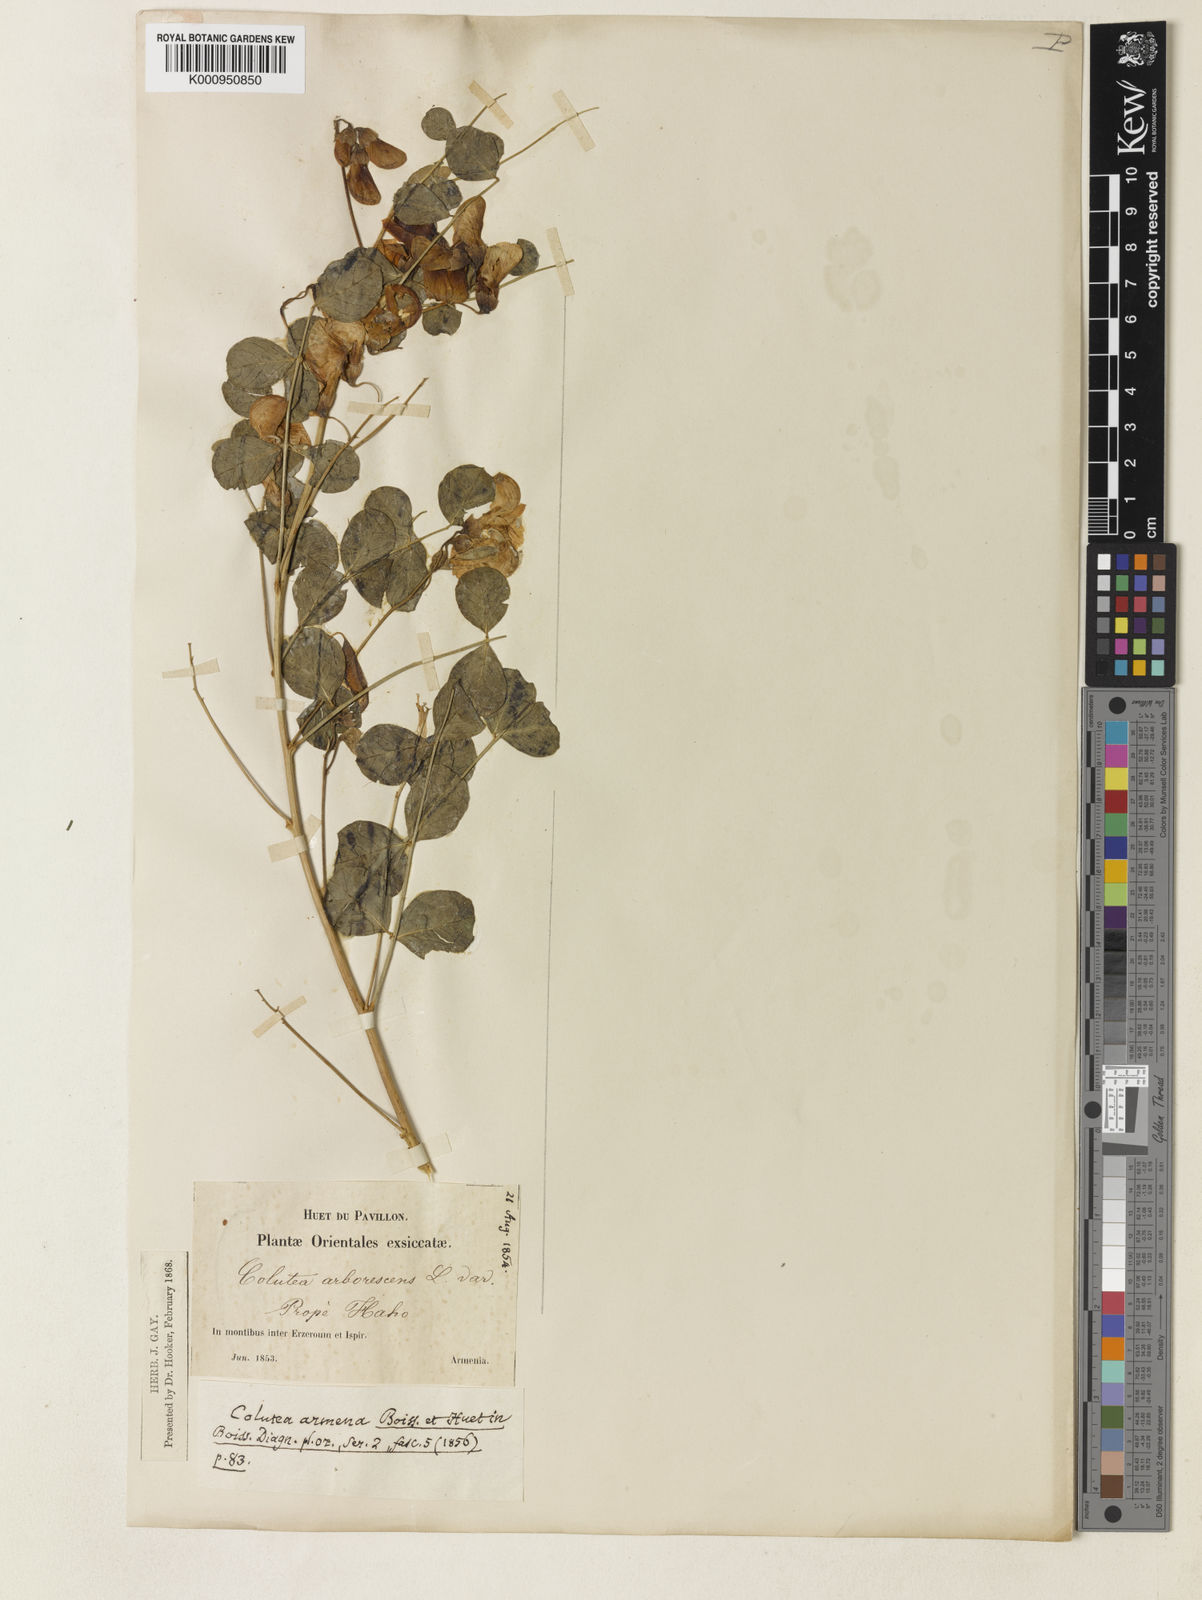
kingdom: Plantae
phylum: Tracheophyta
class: Magnoliopsida
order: Fabales
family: Fabaceae
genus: Colutea
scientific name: Colutea armena
